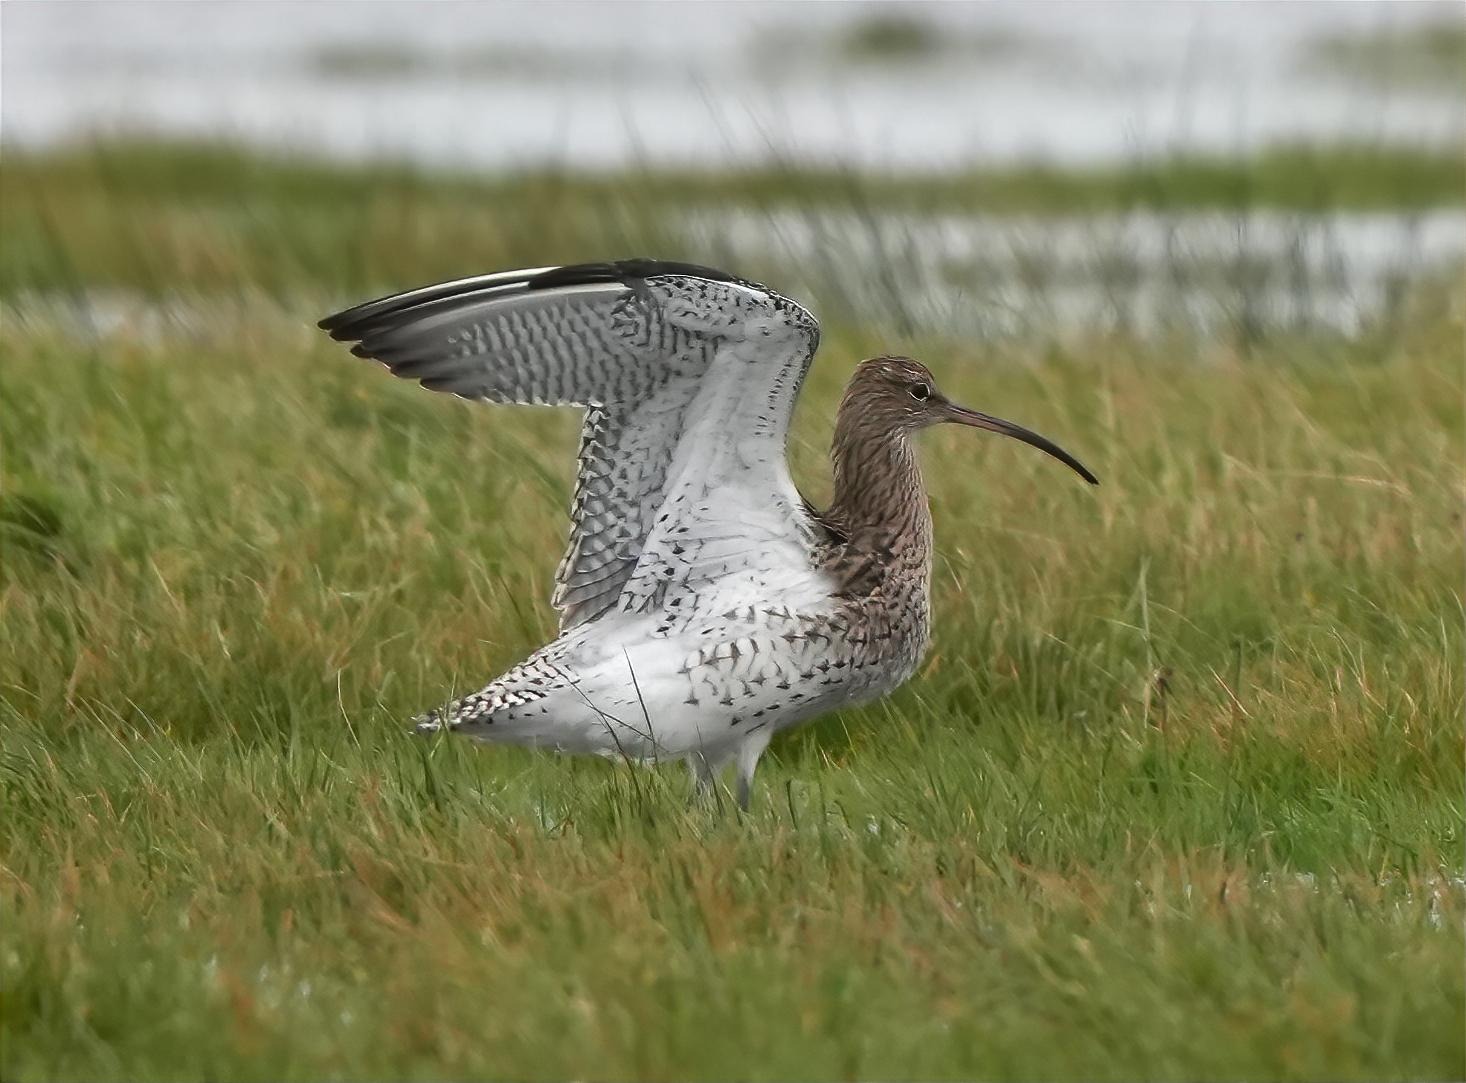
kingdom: Animalia
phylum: Chordata
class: Aves
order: Charadriiformes
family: Scolopacidae
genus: Numenius
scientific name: Numenius arquata
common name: Storspove
